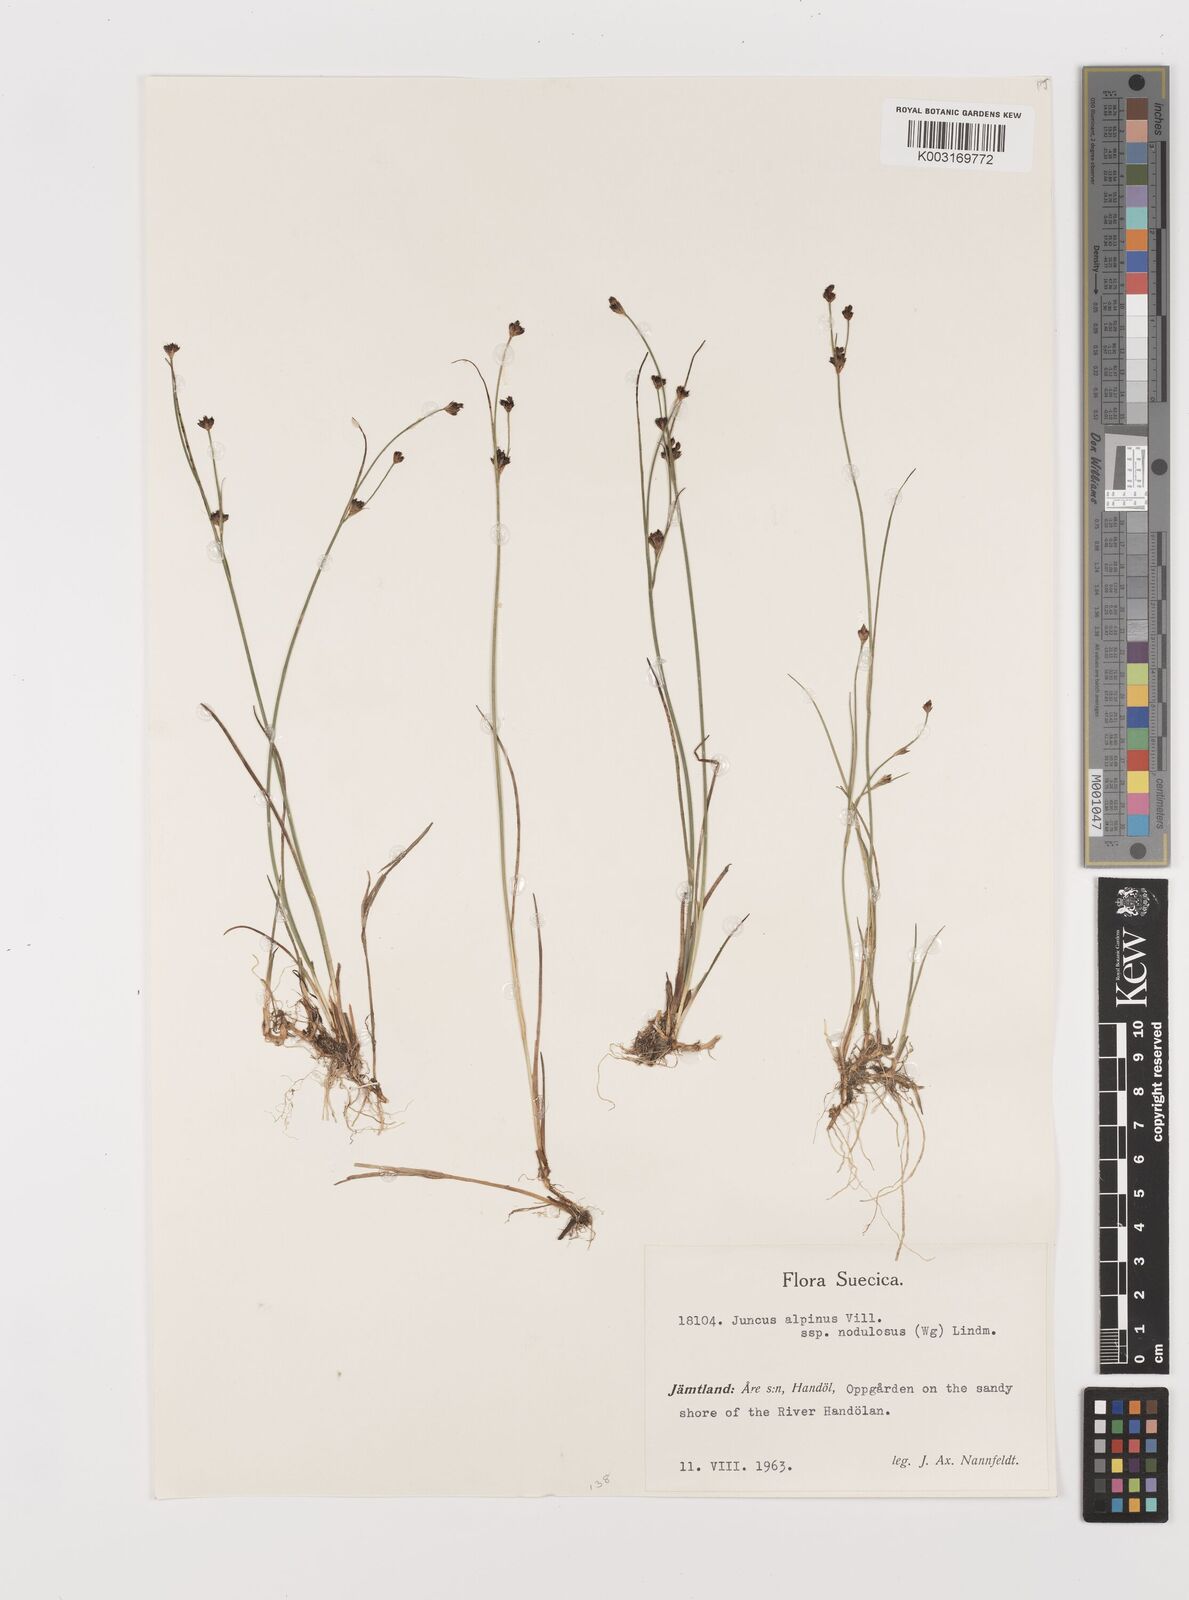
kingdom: Plantae
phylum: Tracheophyta
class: Liliopsida
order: Poales
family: Juncaceae
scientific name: Juncaceae
